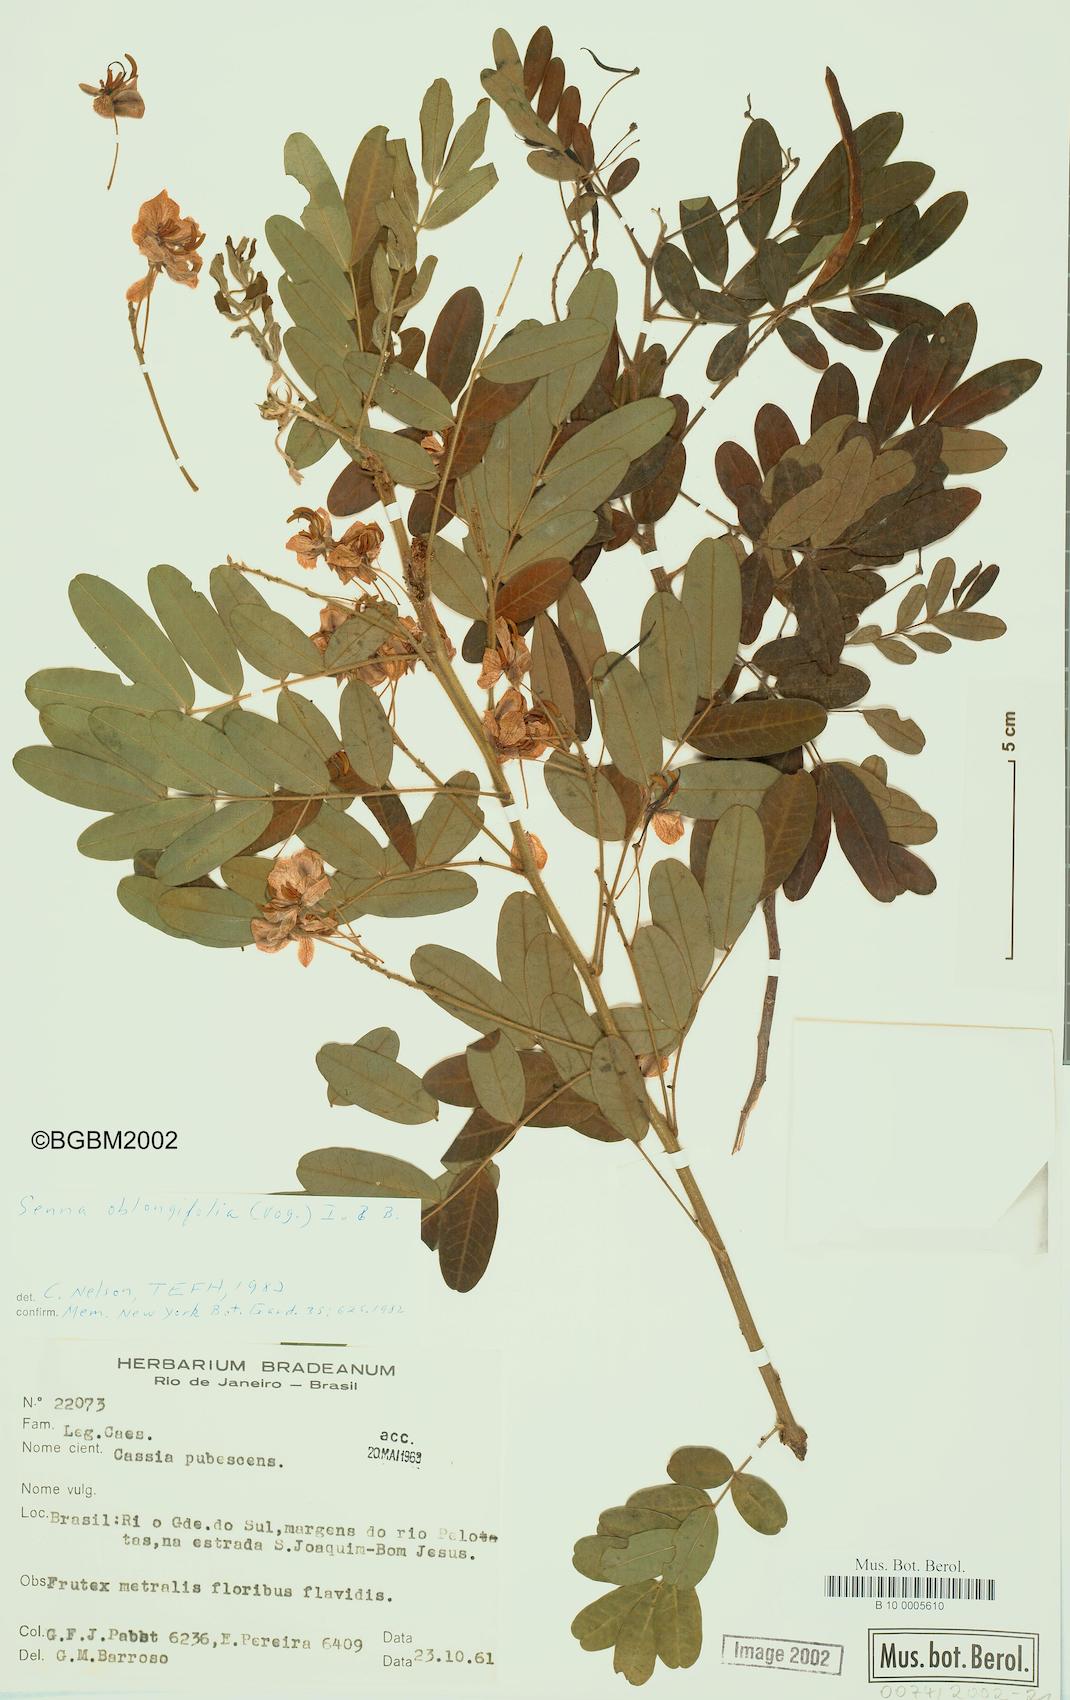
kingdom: Plantae
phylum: Tracheophyta
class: Magnoliopsida
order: Fabales
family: Fabaceae
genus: Senna
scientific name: Senna oblongifolia
